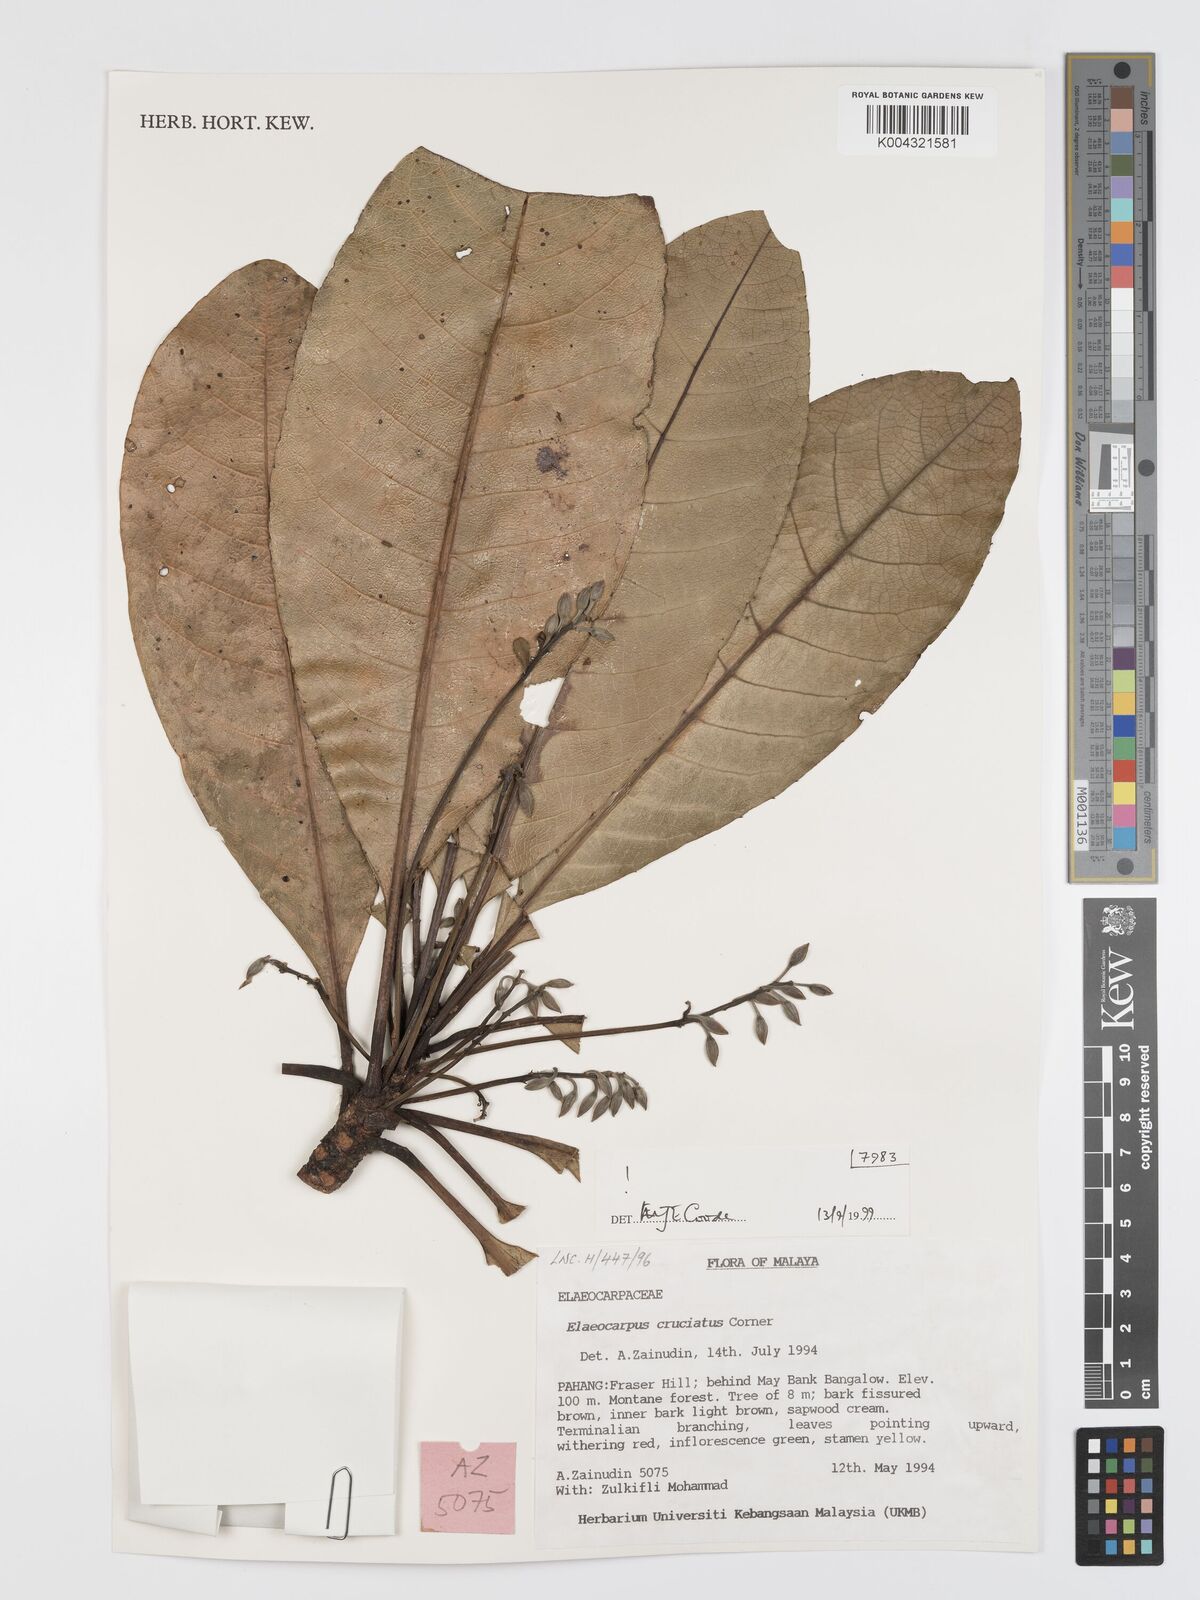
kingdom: Plantae
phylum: Tracheophyta
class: Magnoliopsida
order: Oxalidales
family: Elaeocarpaceae
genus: Elaeocarpus
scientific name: Elaeocarpus cruciatus
